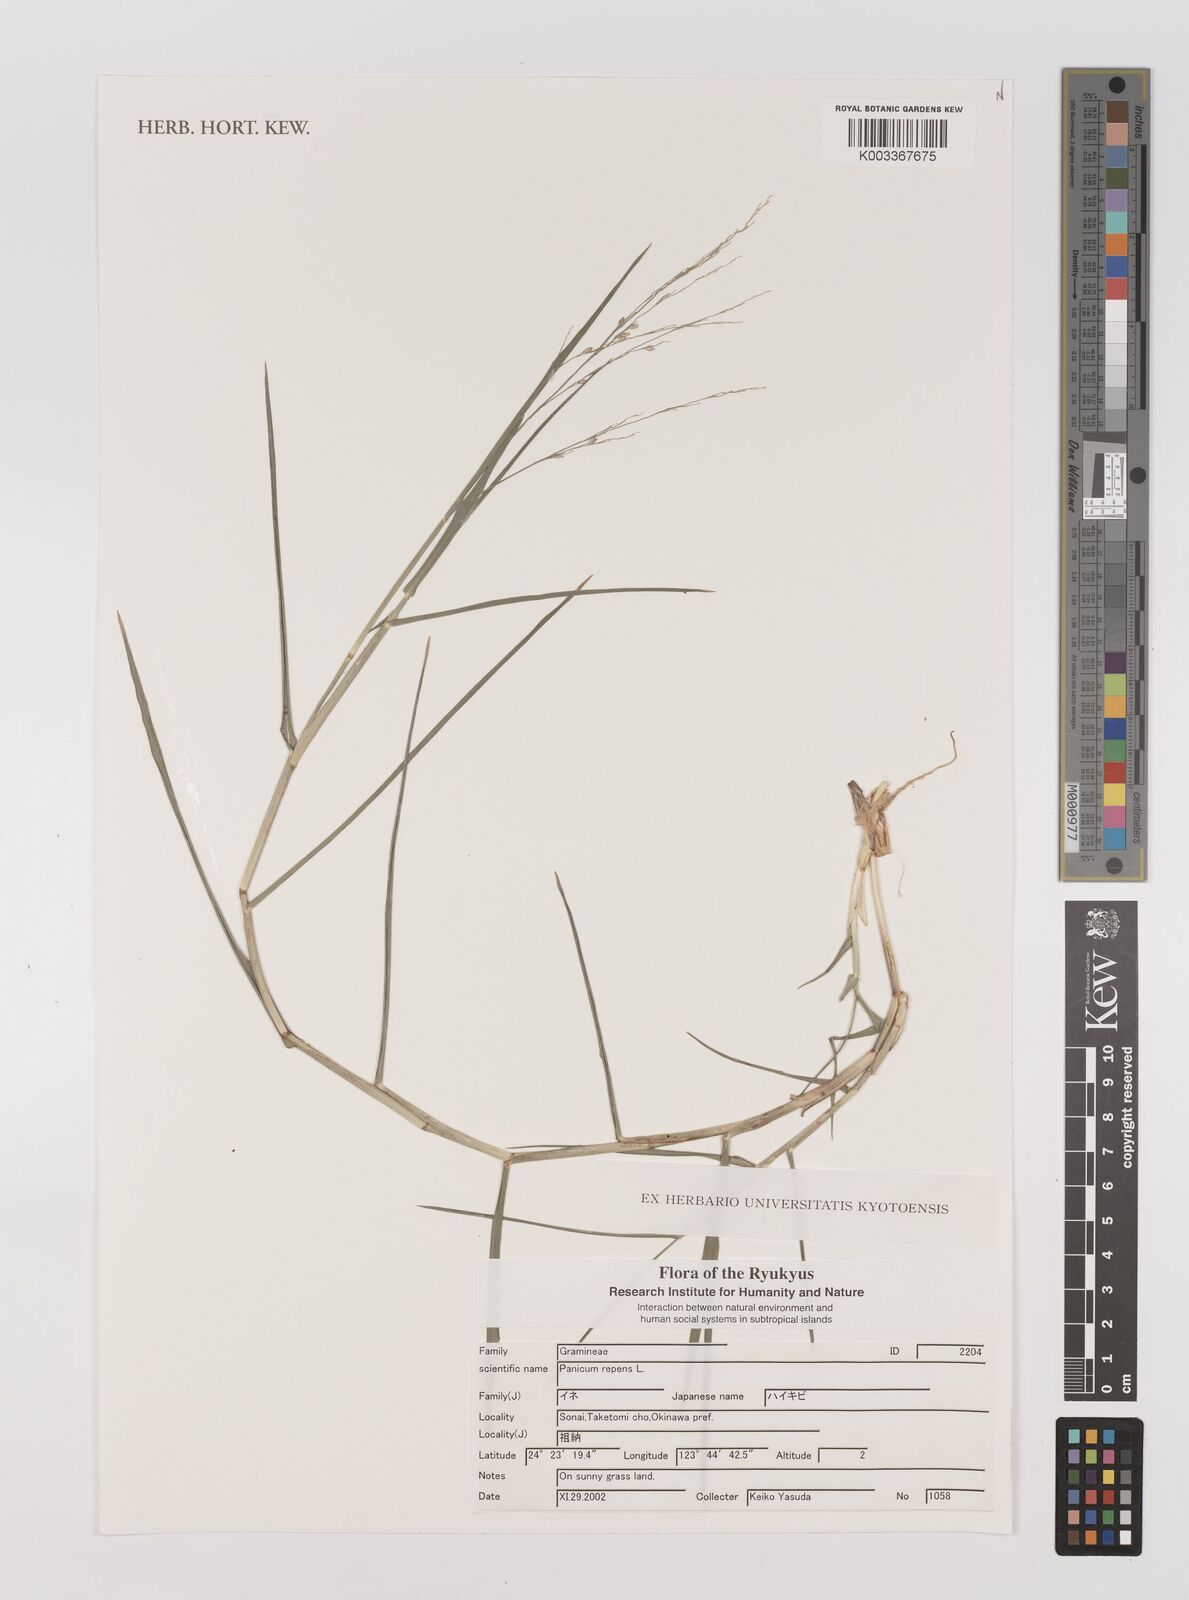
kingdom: Plantae
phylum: Tracheophyta
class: Liliopsida
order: Poales
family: Poaceae
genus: Panicum
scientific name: Panicum repens
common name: Torpedo grass
